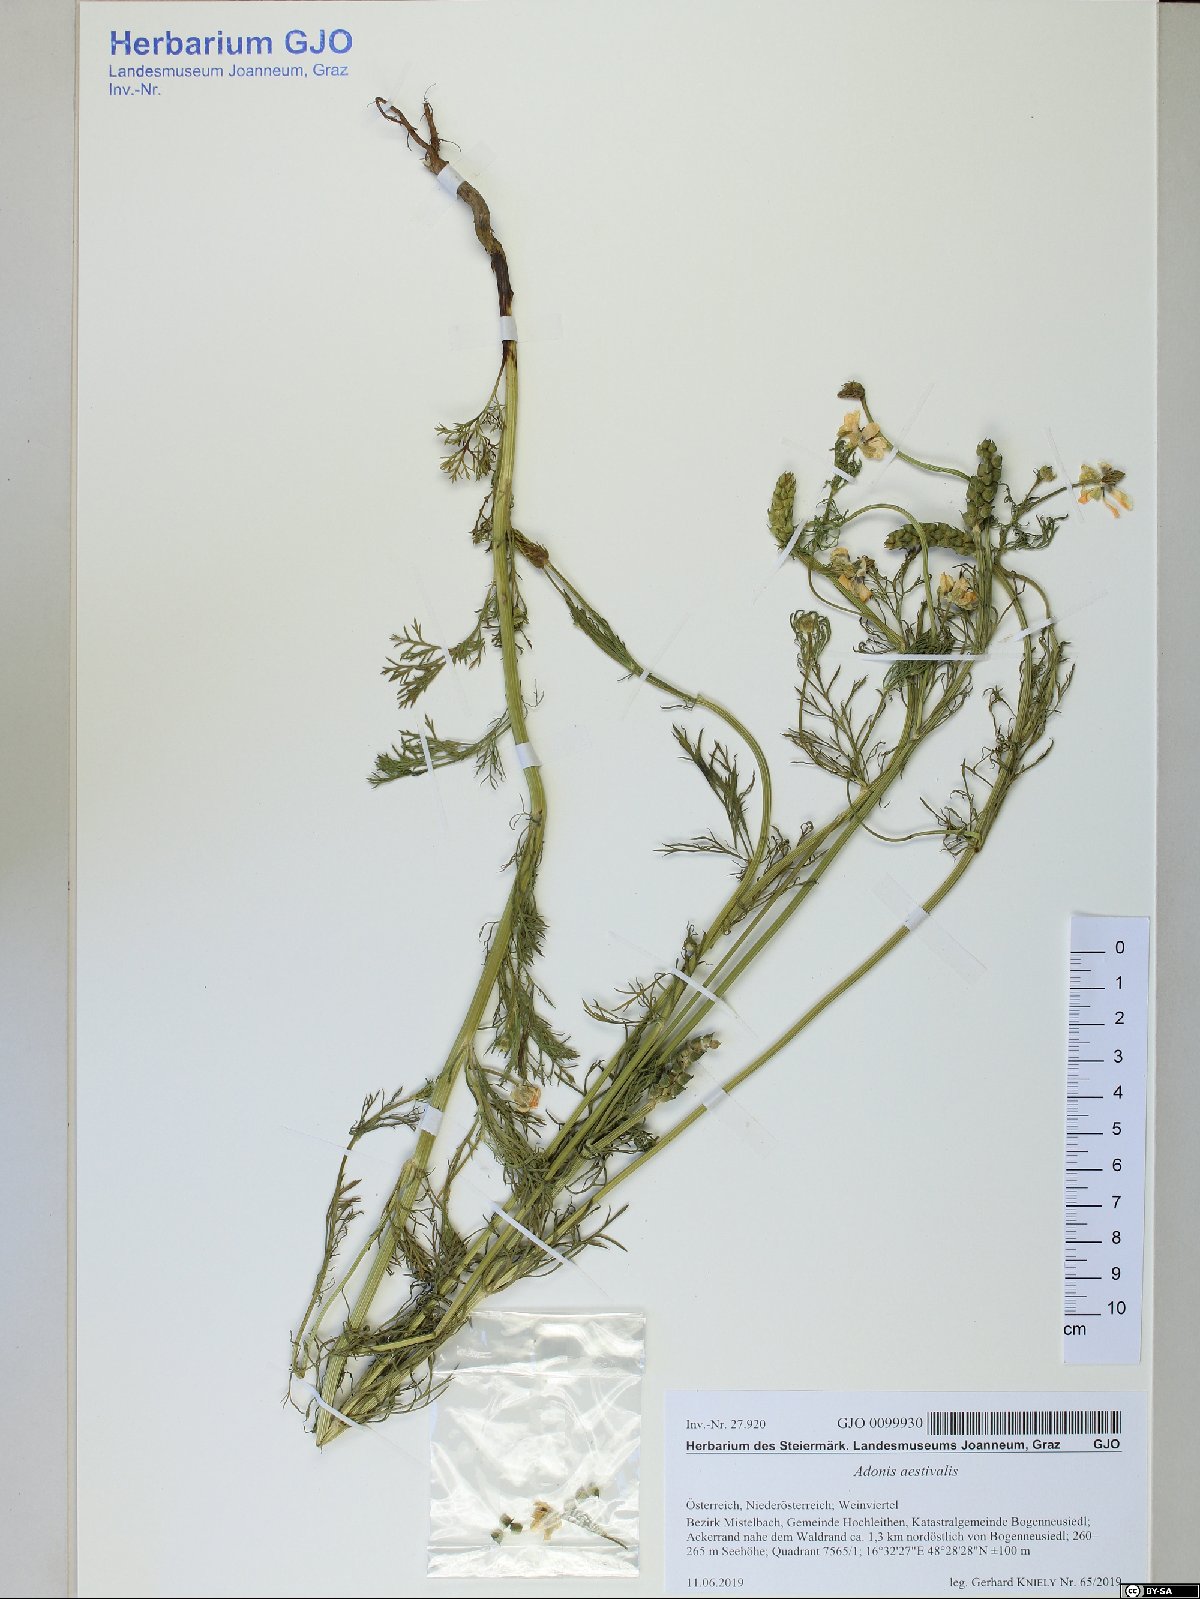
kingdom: Plantae
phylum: Tracheophyta
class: Magnoliopsida
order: Ranunculales
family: Ranunculaceae
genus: Adonis
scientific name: Adonis aestivalis
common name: Summer pheasant's-eye
